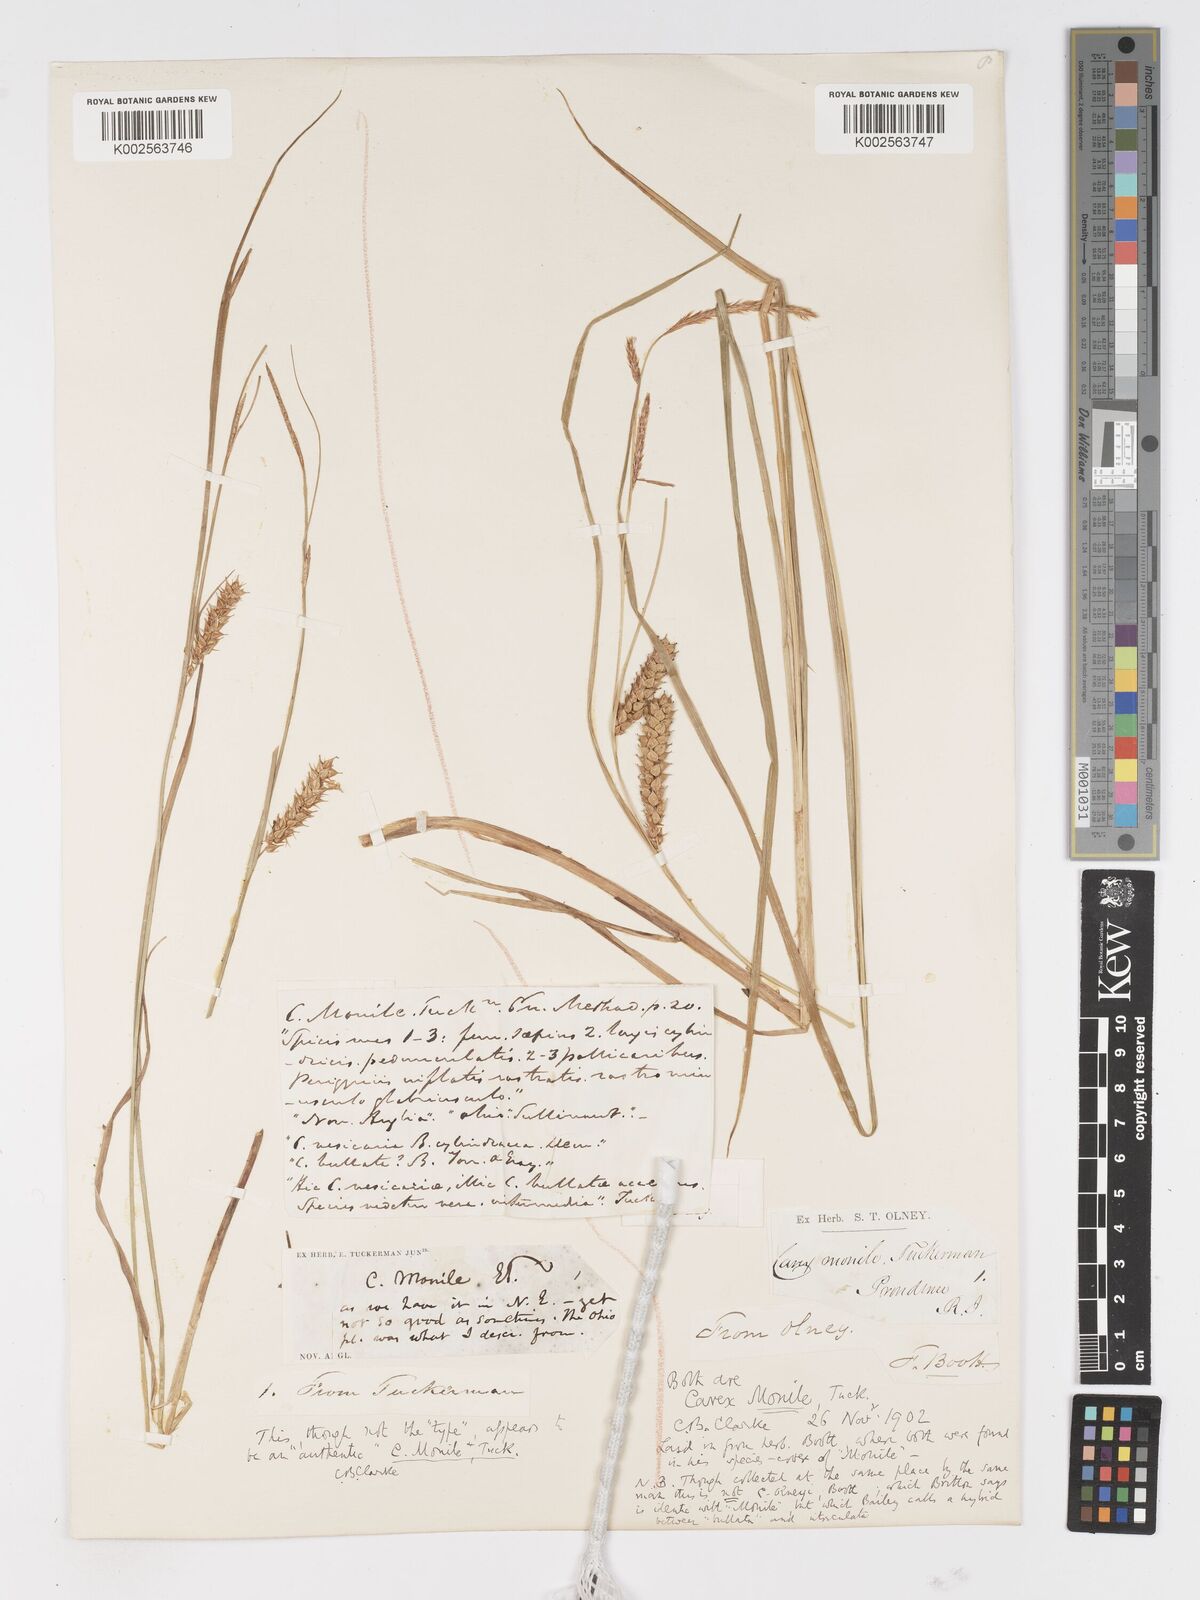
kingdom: Plantae
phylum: Tracheophyta
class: Liliopsida
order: Poales
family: Cyperaceae
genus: Carex
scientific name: Carex vesicaria
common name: Bladder-sedge
